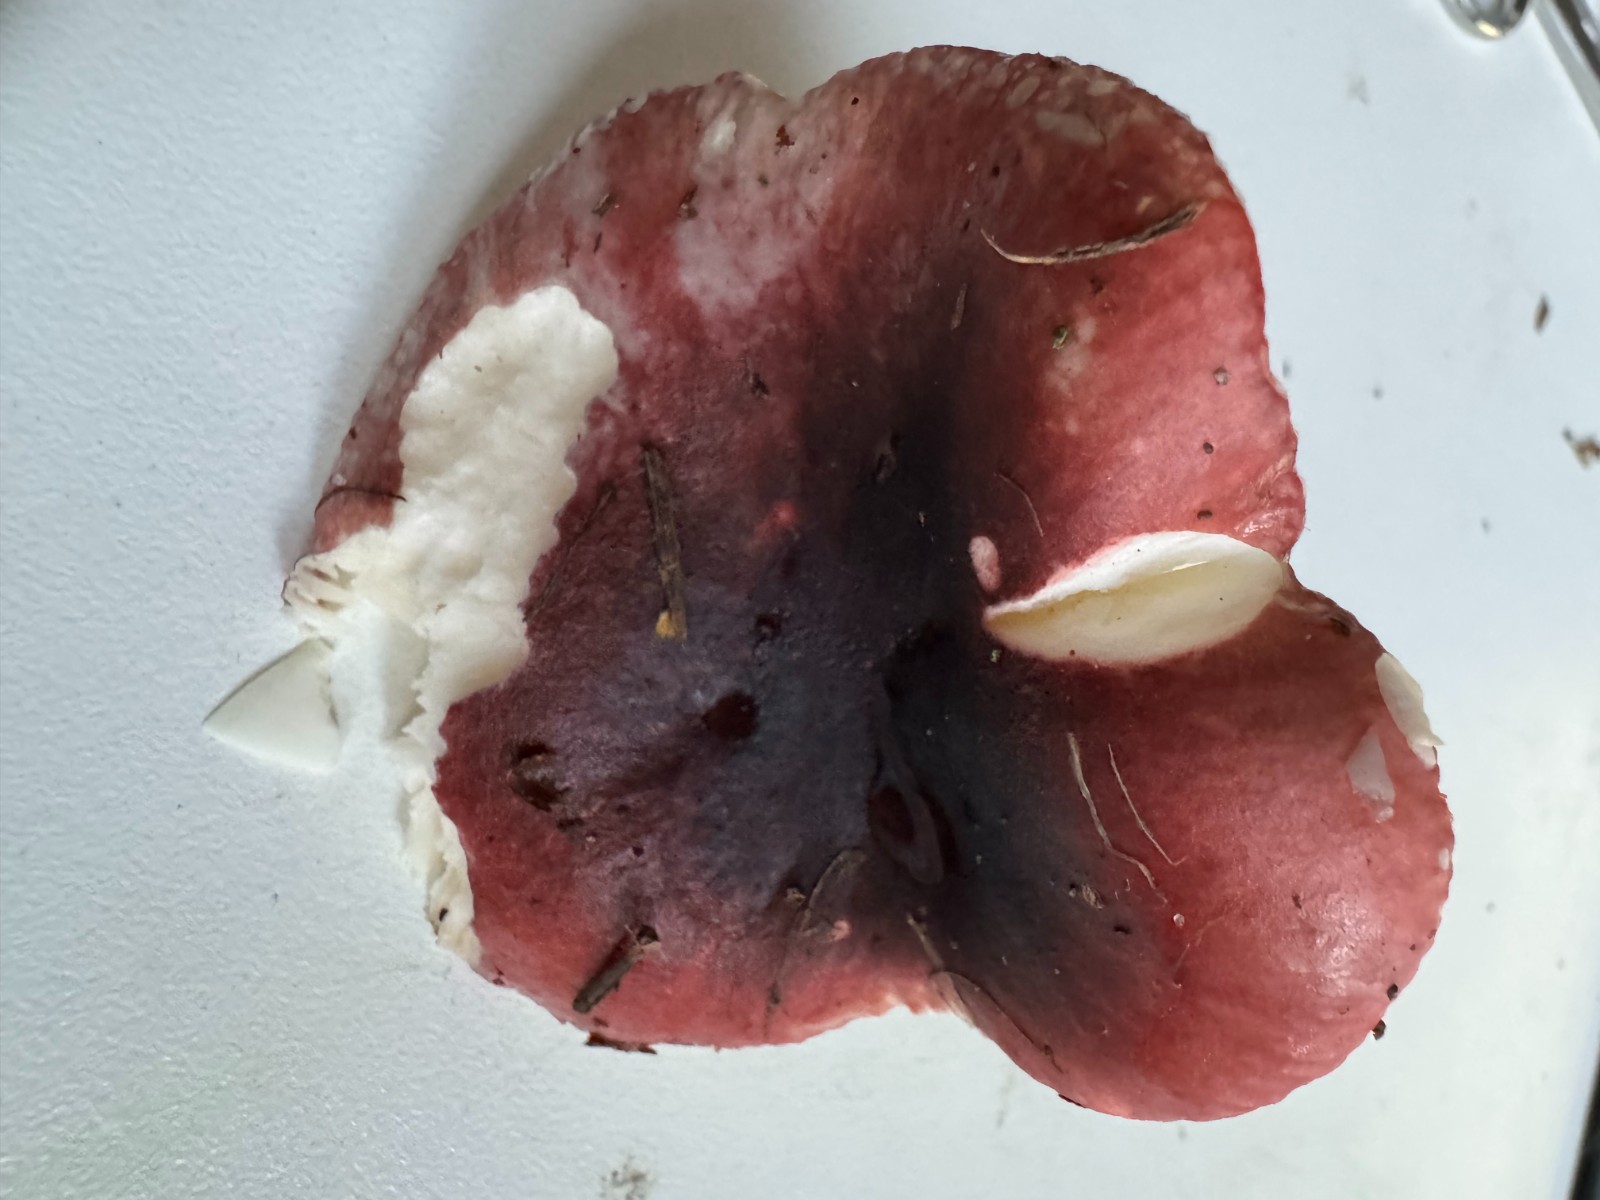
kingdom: Fungi
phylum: Basidiomycota
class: Agaricomycetes
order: Russulales
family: Russulaceae
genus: Russula
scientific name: Russula atrorubens
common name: sortrød skørhat
